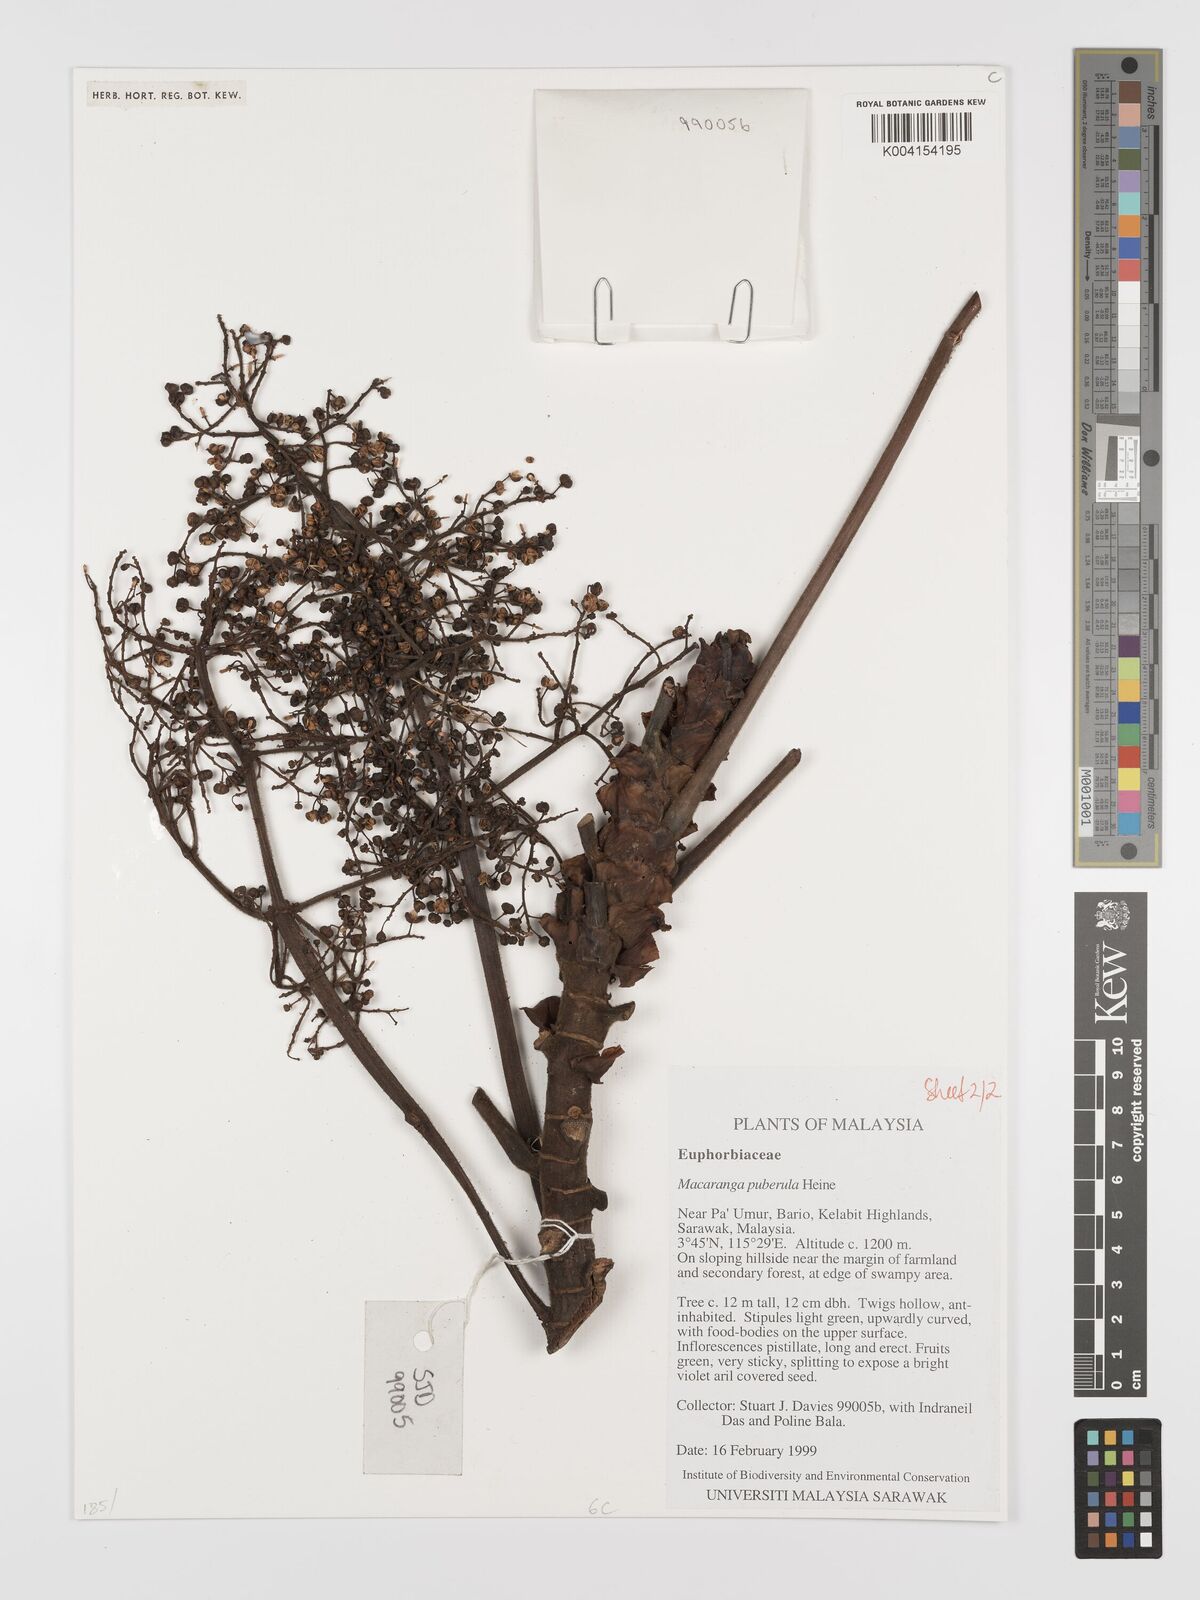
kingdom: Plantae
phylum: Tracheophyta
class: Magnoliopsida
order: Malpighiales
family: Euphorbiaceae
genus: Macaranga
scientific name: Macaranga puberula
